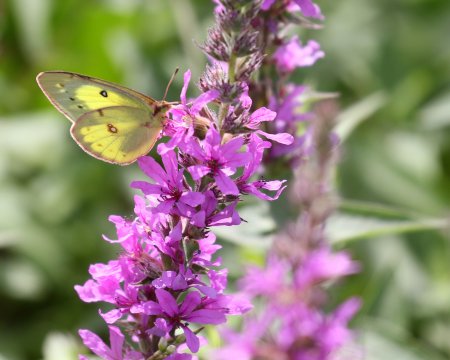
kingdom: Animalia
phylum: Arthropoda
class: Insecta
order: Lepidoptera
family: Pieridae
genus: Colias
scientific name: Colias philodice
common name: Clouded Sulphur
